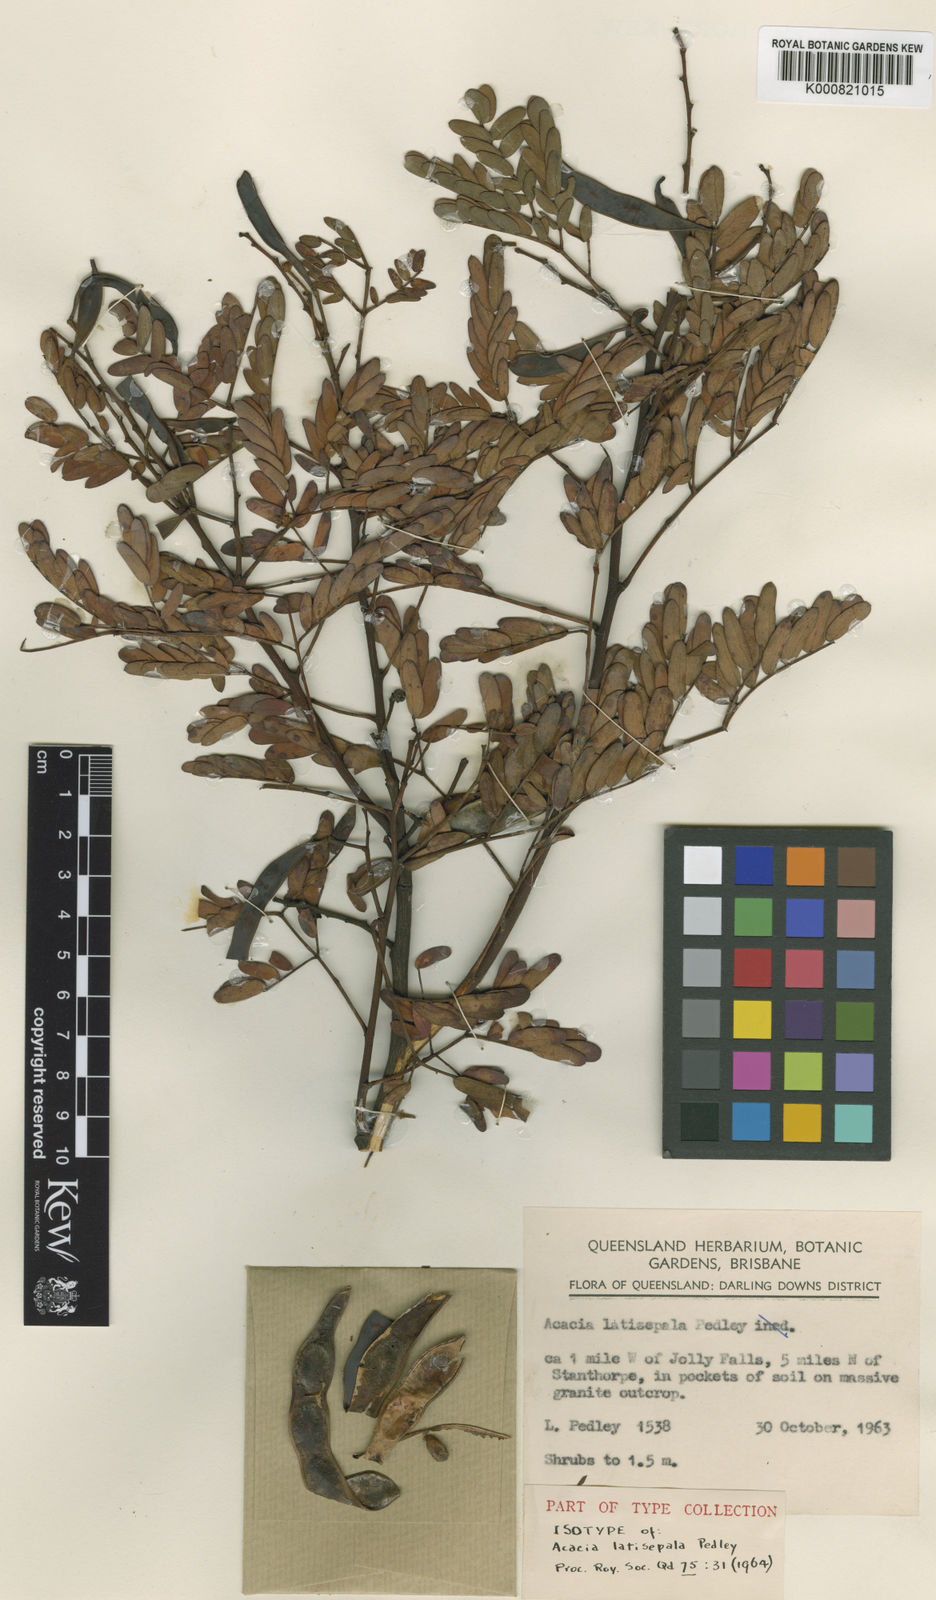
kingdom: Plantae
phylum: Tracheophyta
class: Magnoliopsida
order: Fabales
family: Fabaceae
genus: Acacia
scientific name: Acacia latisepala
